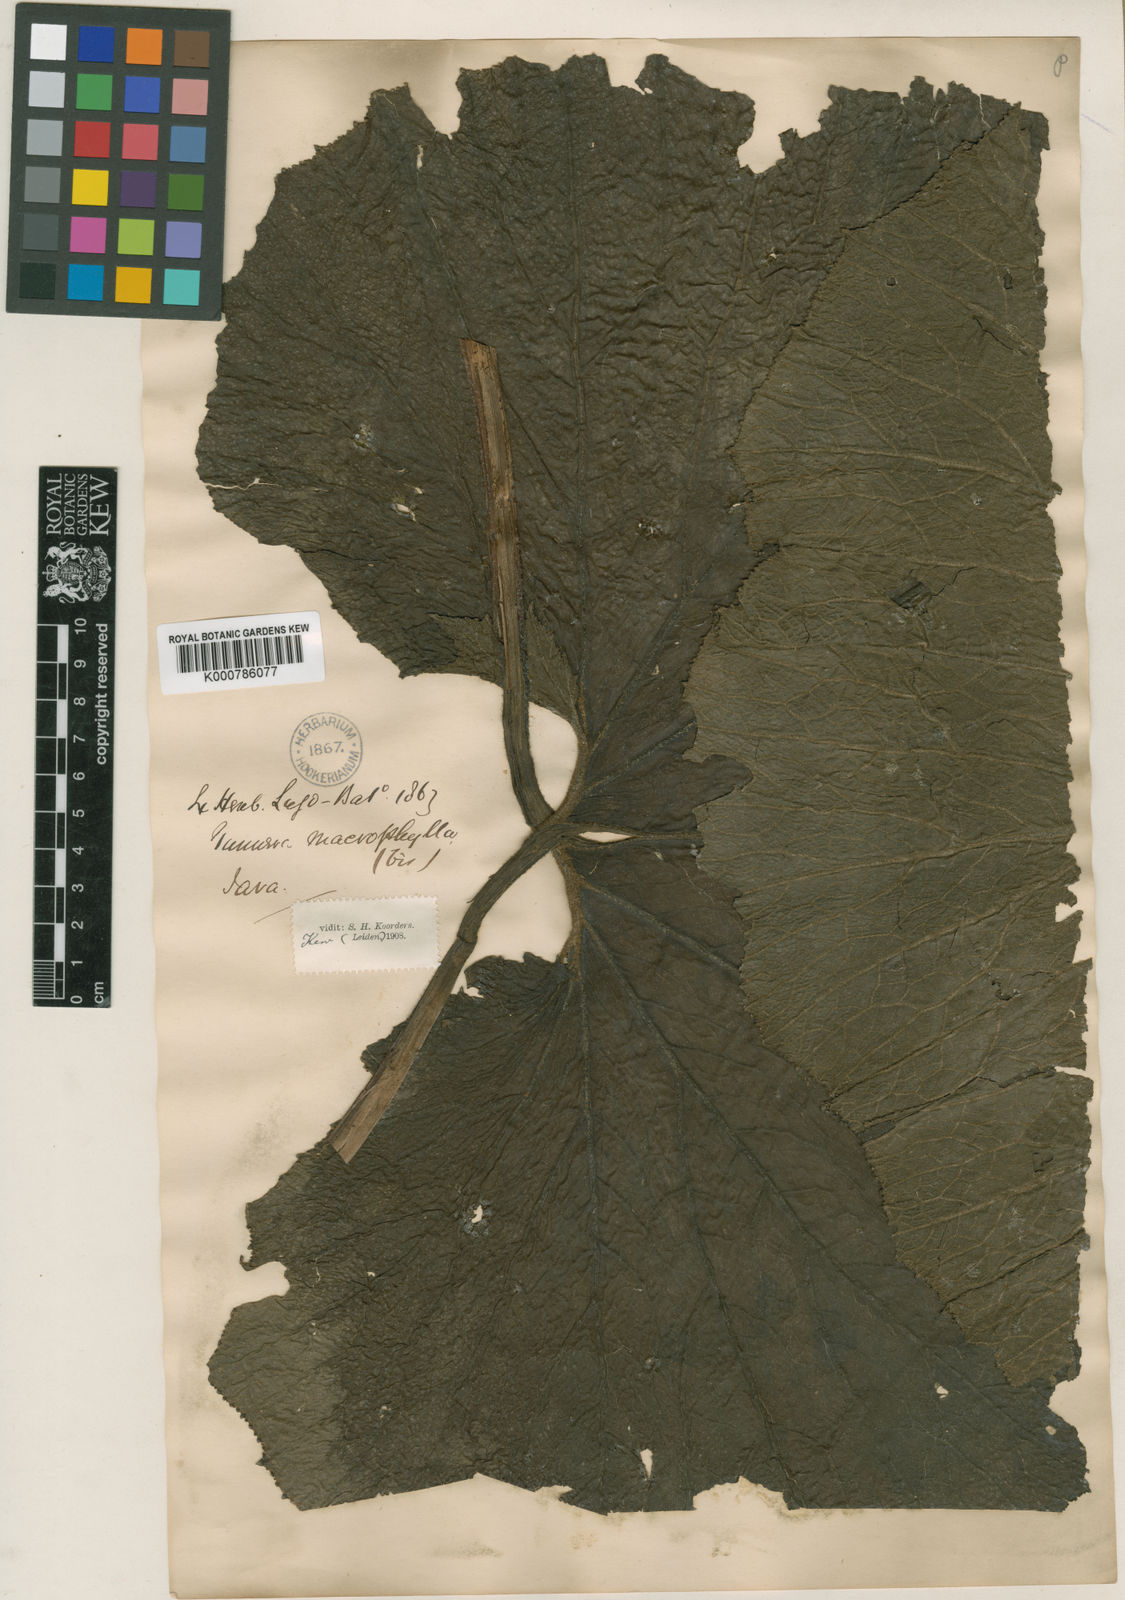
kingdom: Plantae
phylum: Tracheophyta
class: Magnoliopsida
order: Gunnerales
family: Gunneraceae
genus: Gunnera
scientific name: Gunnera macrophylla
